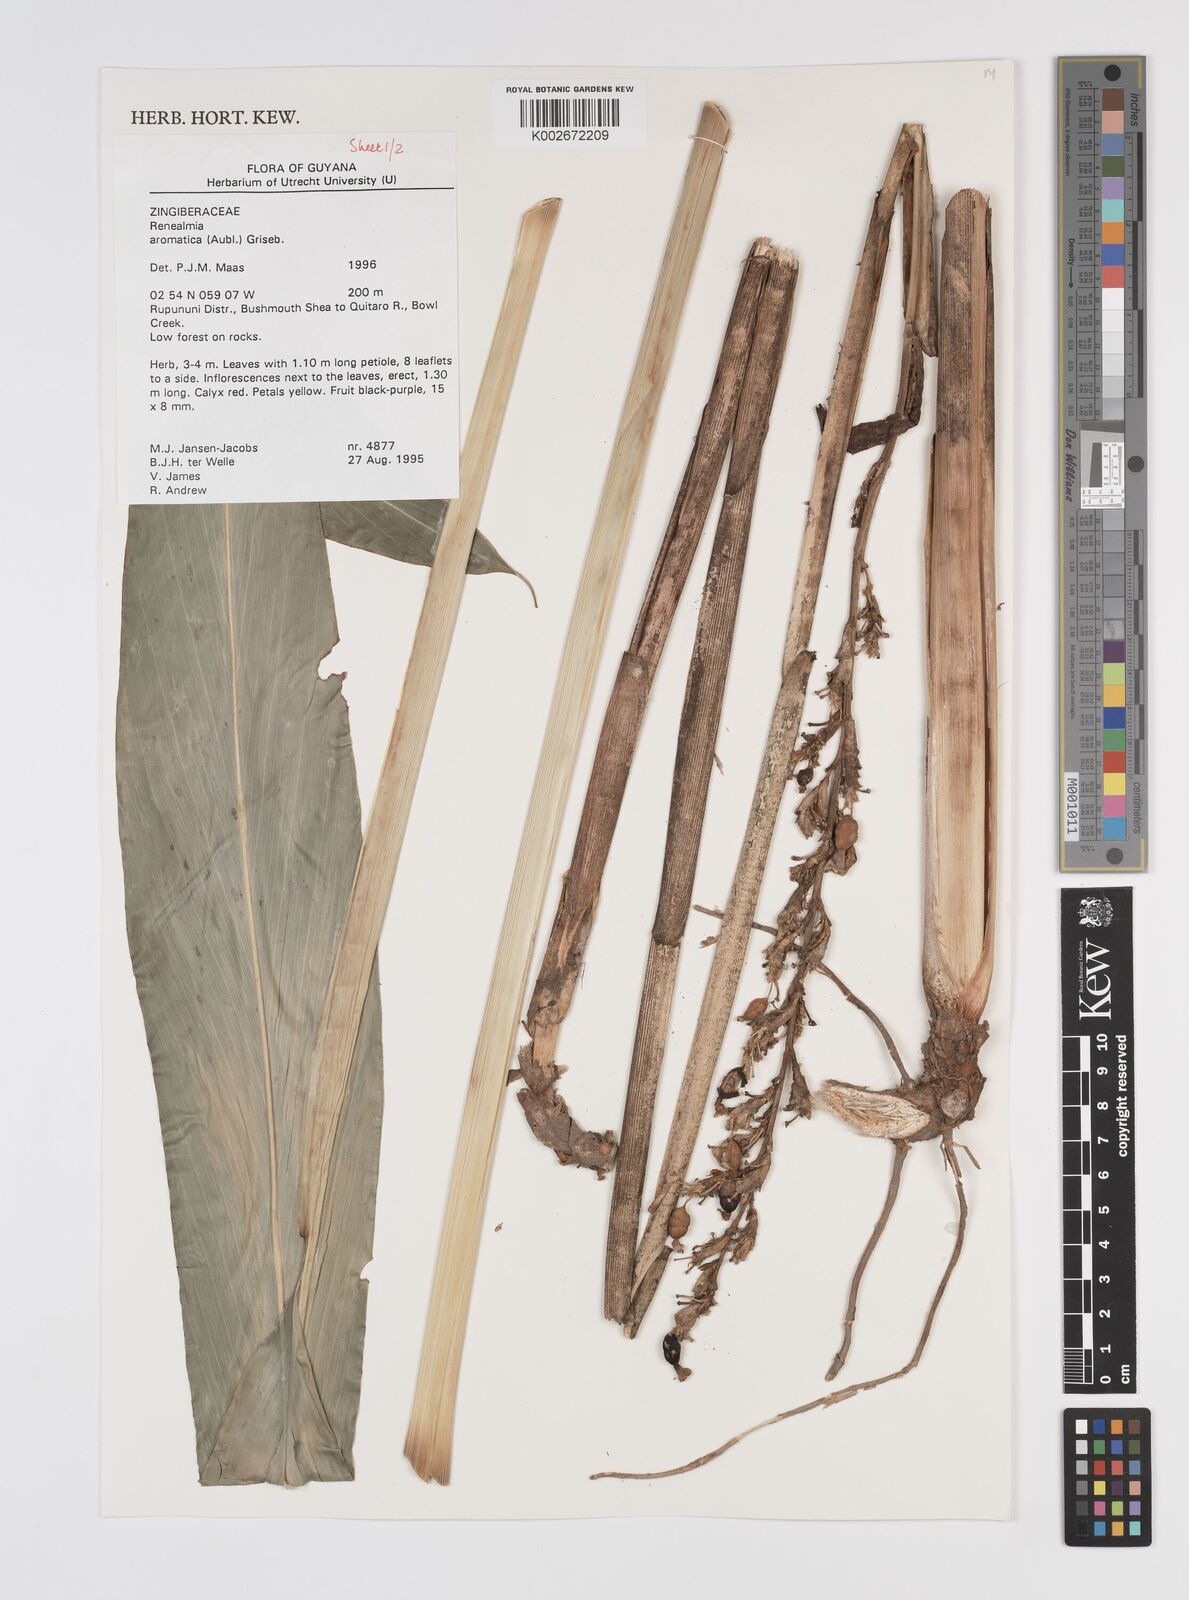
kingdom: Plantae
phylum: Tracheophyta
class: Liliopsida
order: Zingiberales
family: Zingiberaceae
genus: Renealmia
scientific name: Renealmia aromatica
